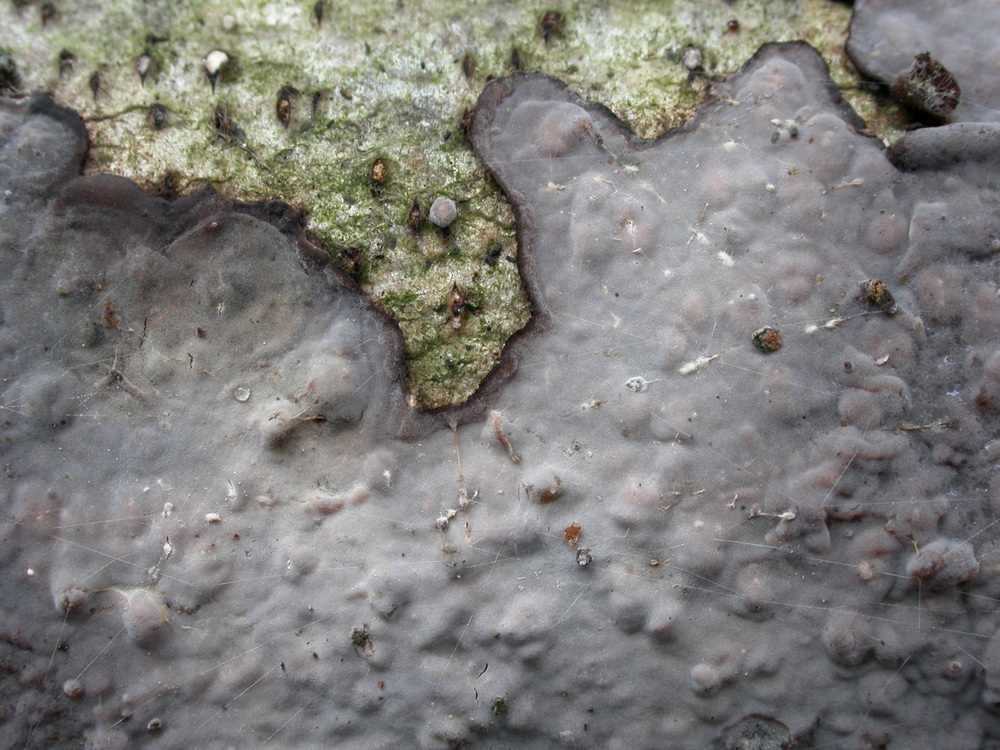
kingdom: Fungi
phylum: Basidiomycota
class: Agaricomycetes
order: Russulales
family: Peniophoraceae
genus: Peniophora
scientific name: Peniophora limitata
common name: mørkrandet voksskind
